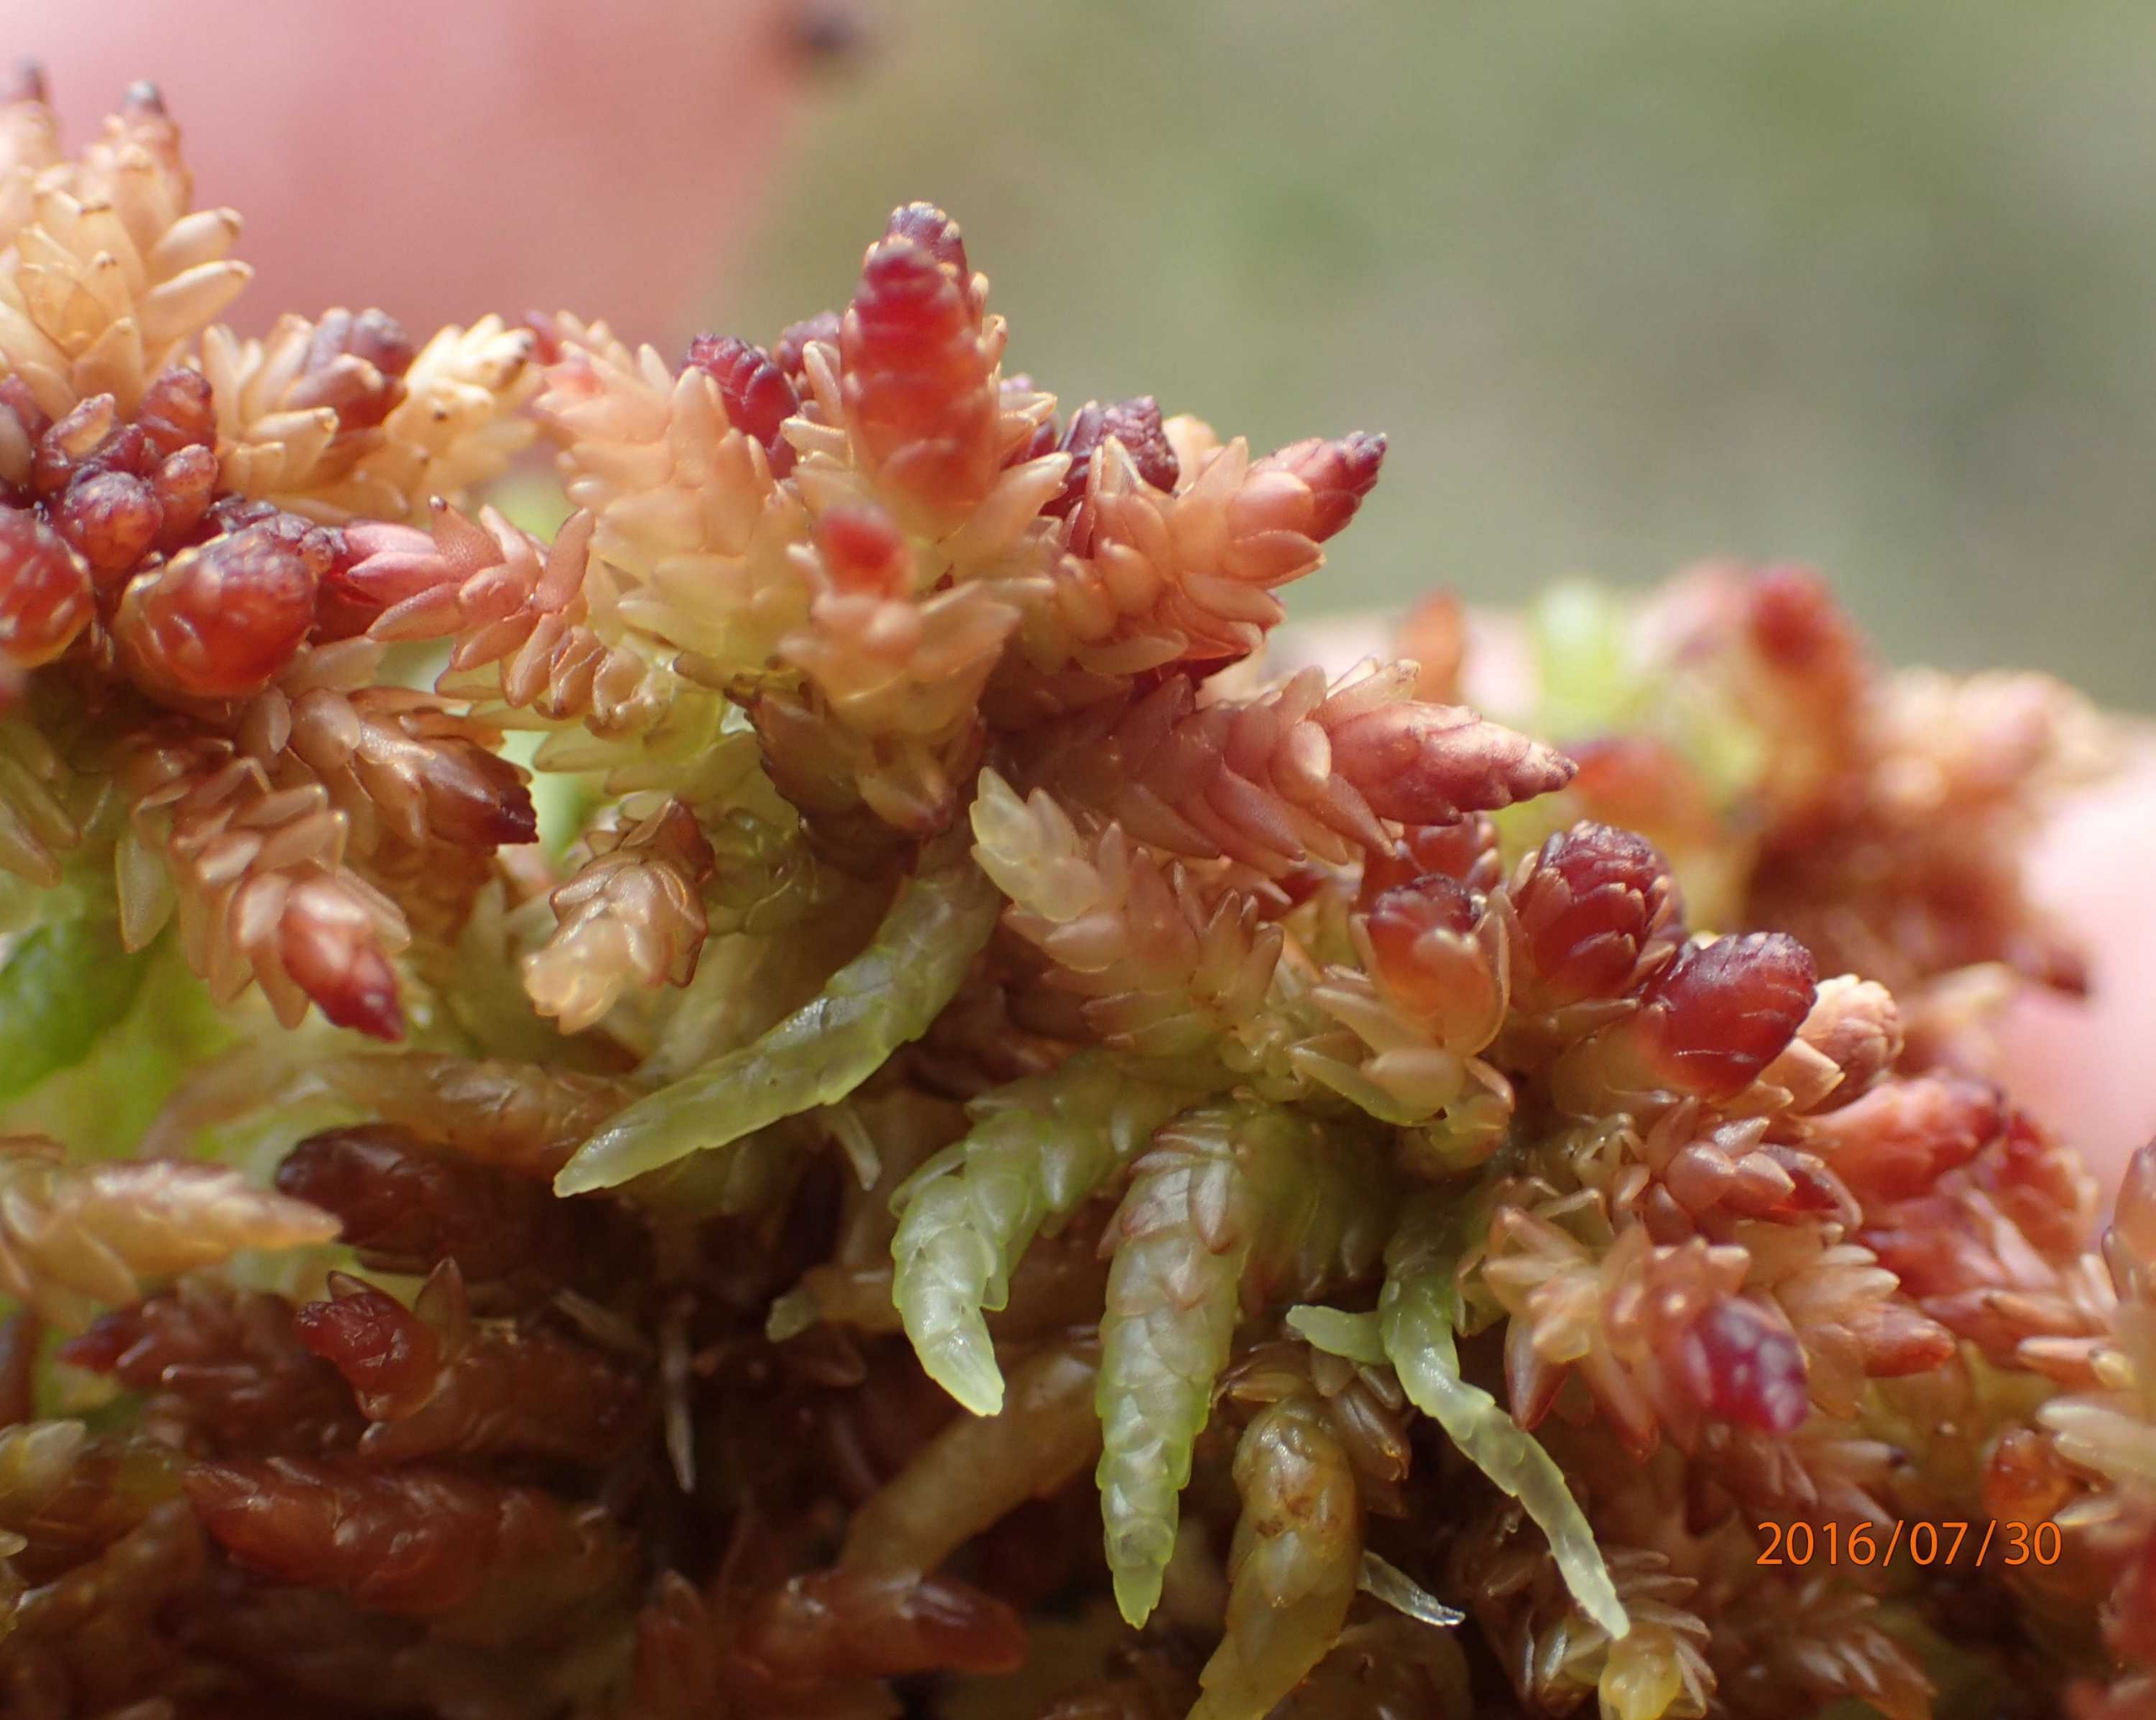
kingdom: Plantae
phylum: Bryophyta
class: Sphagnopsida
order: Sphagnales
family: Sphagnaceae
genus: Sphagnum
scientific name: Sphagnum
